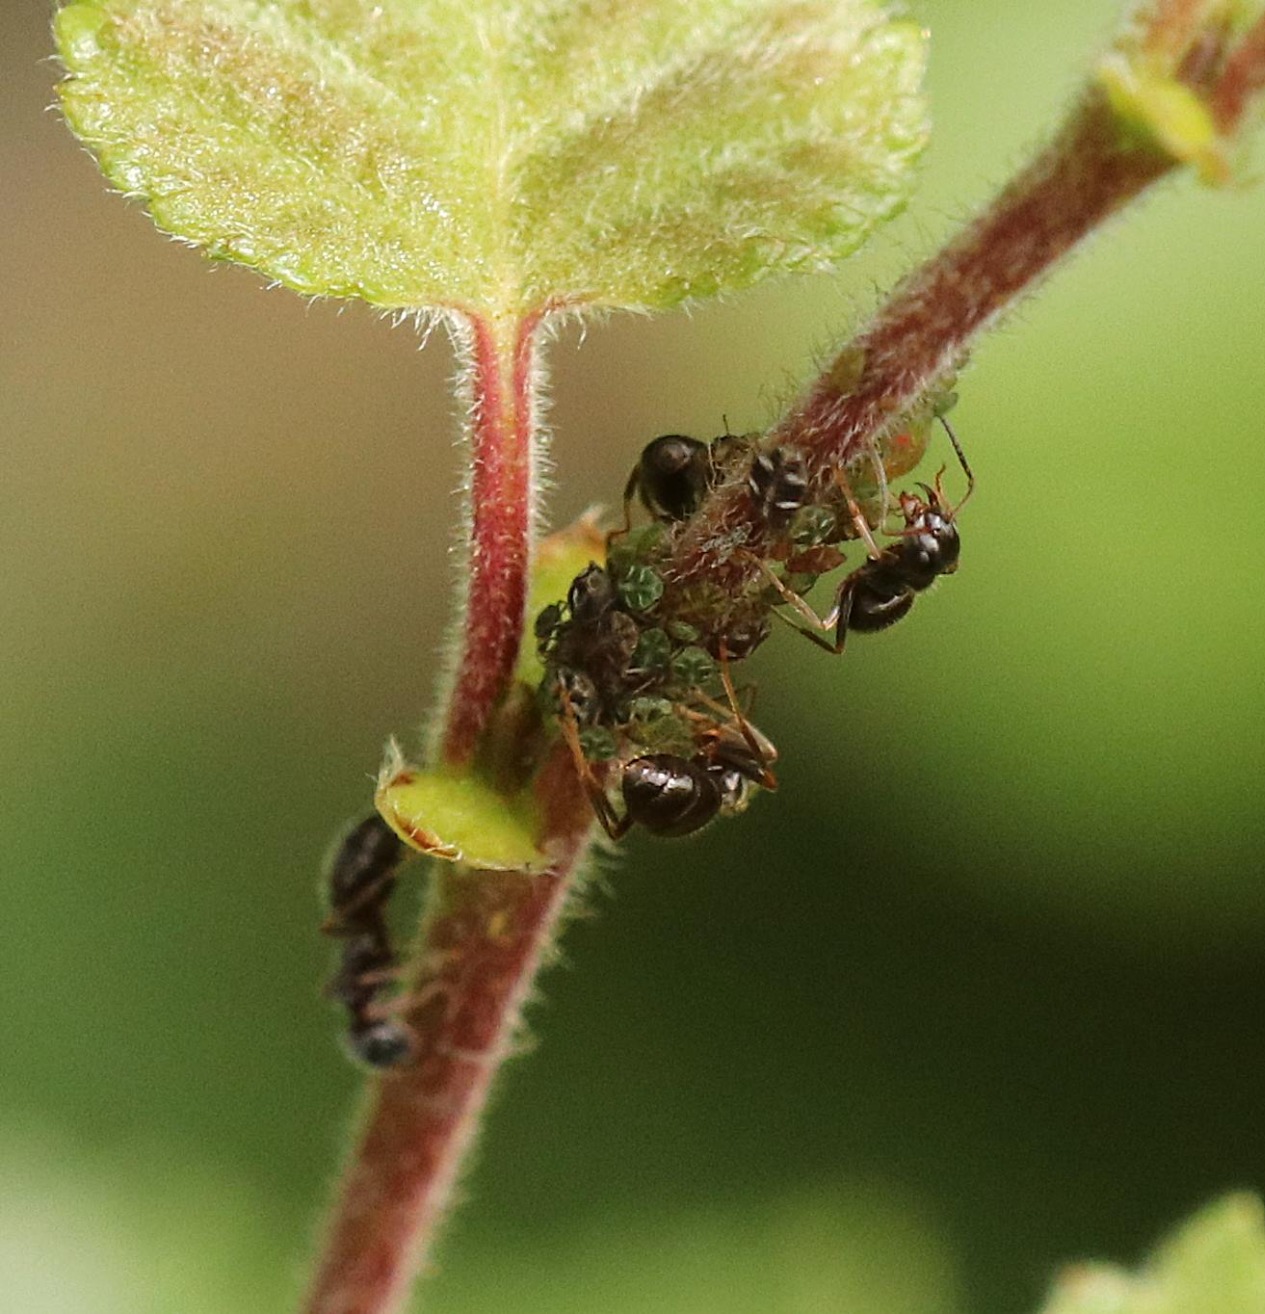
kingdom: Animalia
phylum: Arthropoda
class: Insecta
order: Hemiptera
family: Aphididae
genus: Glyphina
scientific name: Glyphina pseudoschrankiana
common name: Brun birkemaskebladlus
